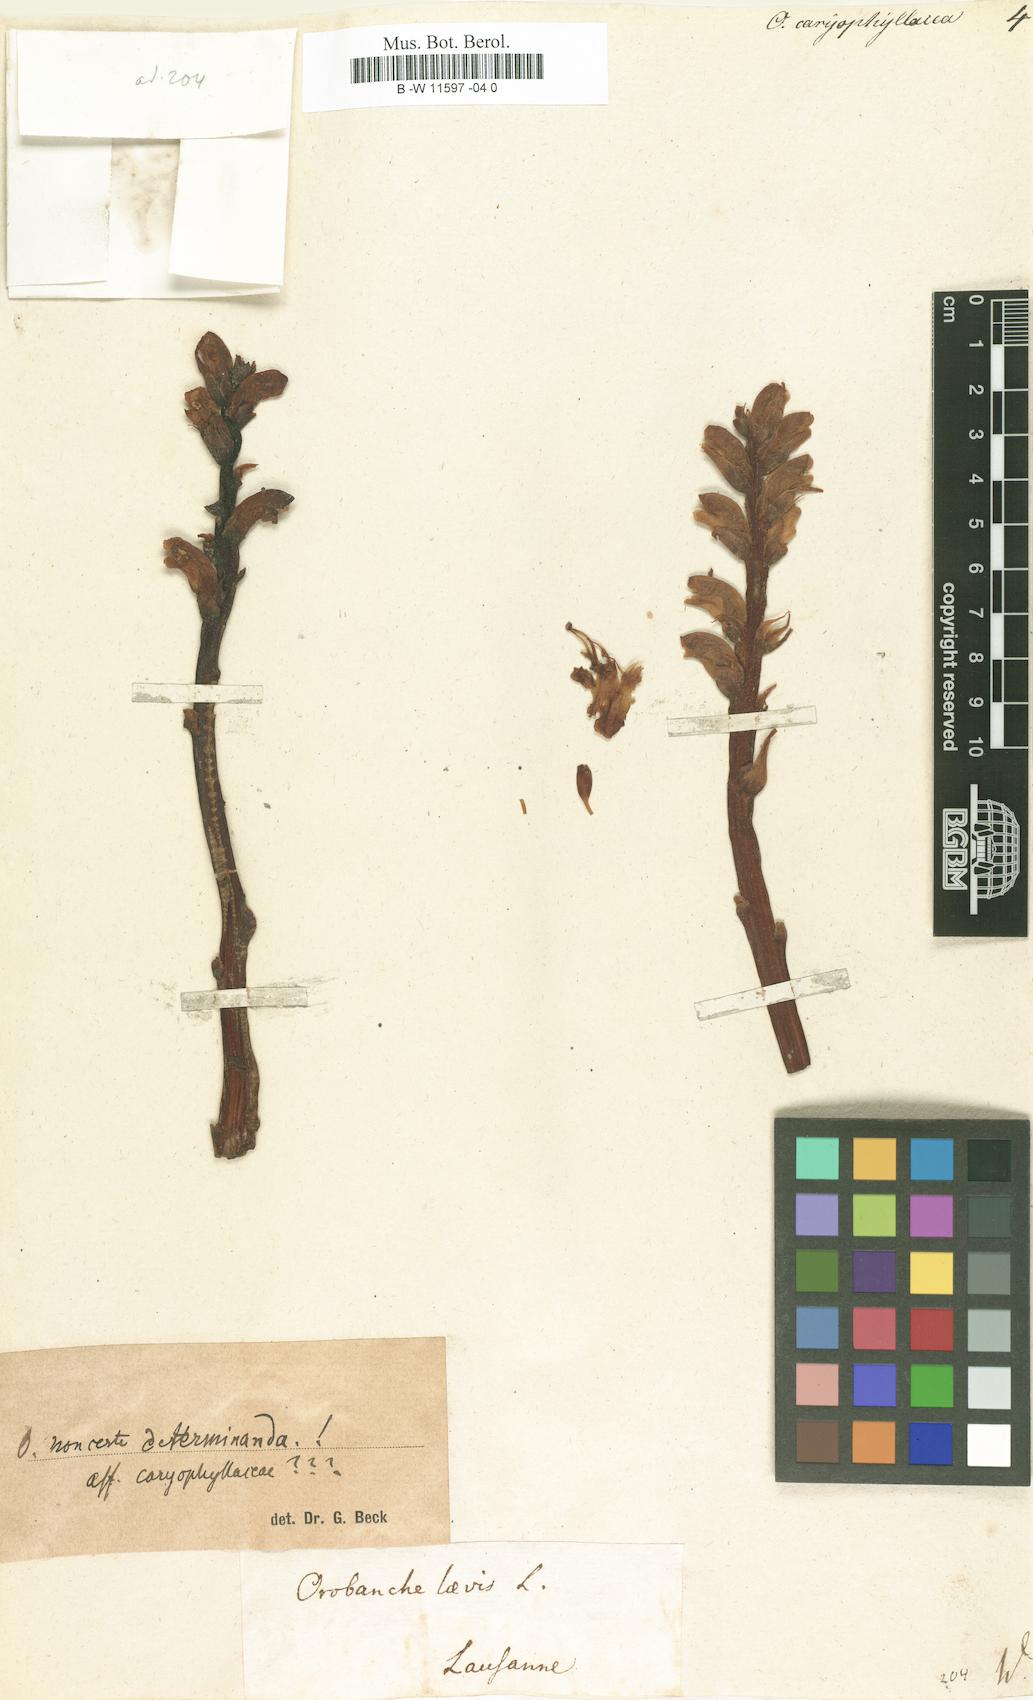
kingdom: Plantae
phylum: Tracheophyta
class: Magnoliopsida
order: Lamiales
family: Orobanchaceae
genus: Orobanche
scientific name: Orobanche caryophyllacea
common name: Bedstraw broomrape
